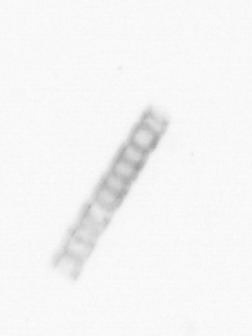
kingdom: Chromista
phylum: Ochrophyta
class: Bacillariophyceae
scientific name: Bacillariophyceae
